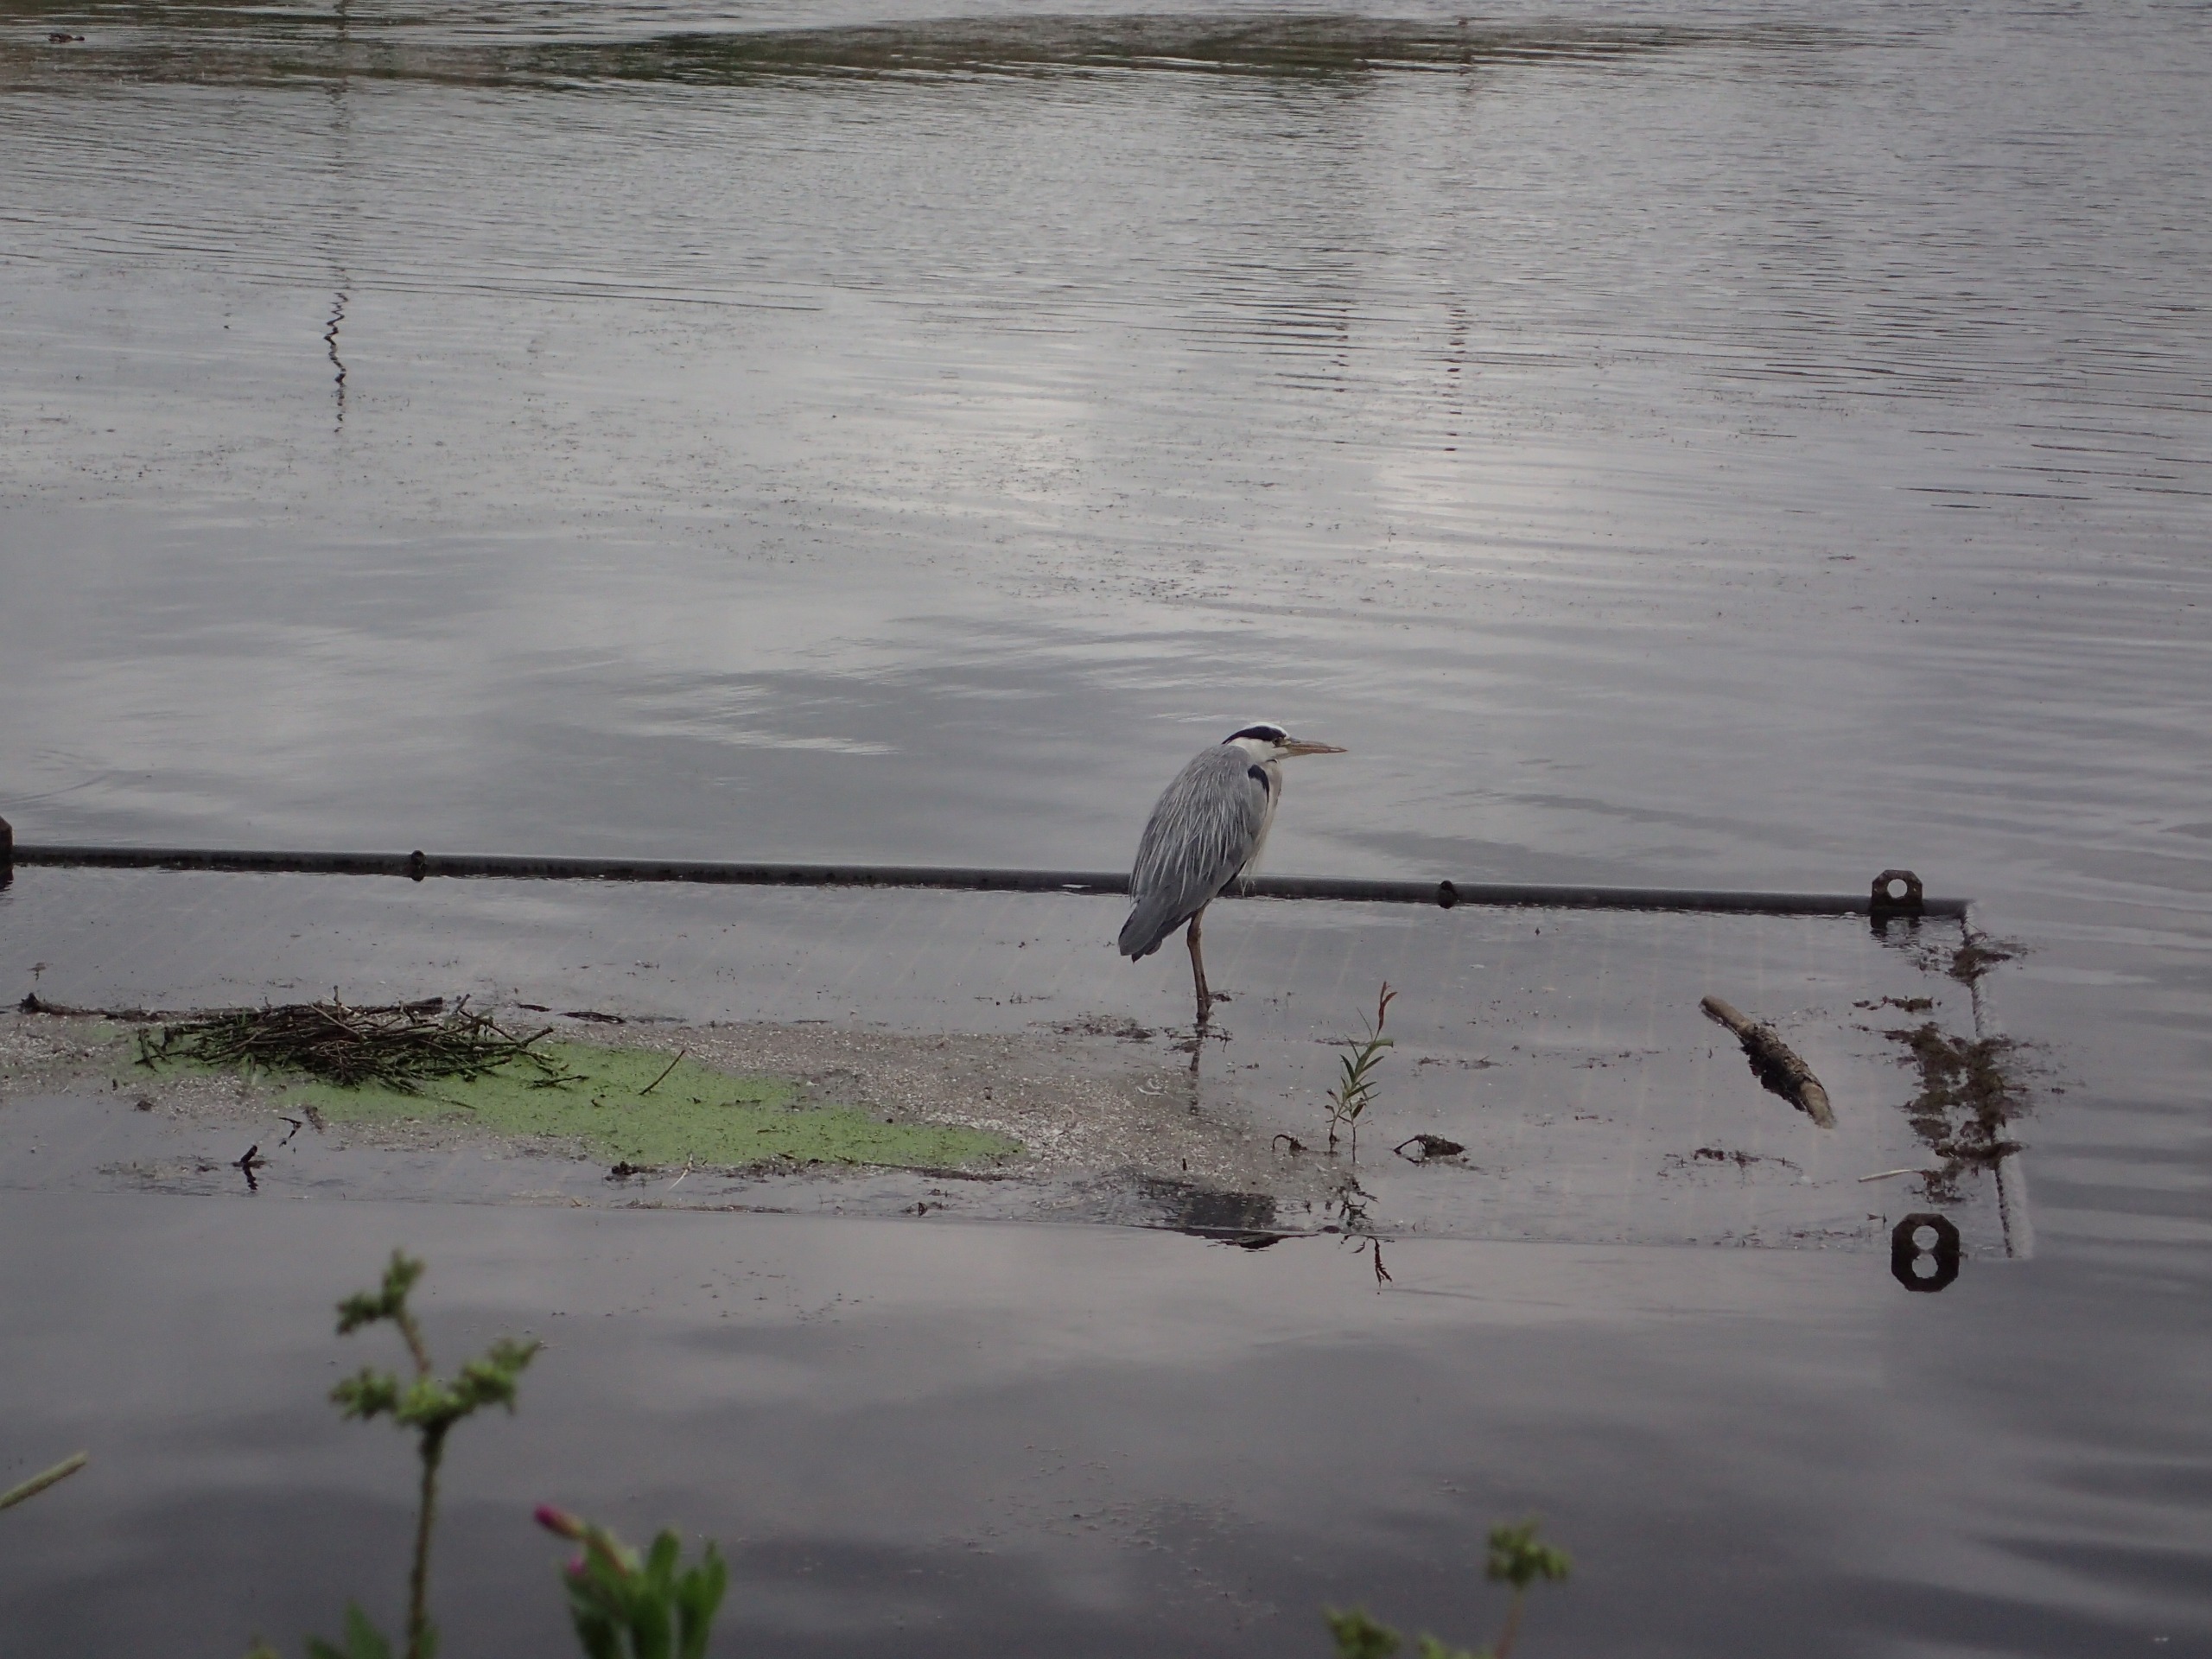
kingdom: Animalia
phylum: Chordata
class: Aves
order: Pelecaniformes
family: Ardeidae
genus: Ardea
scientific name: Ardea cinerea
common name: Fiskehejre
